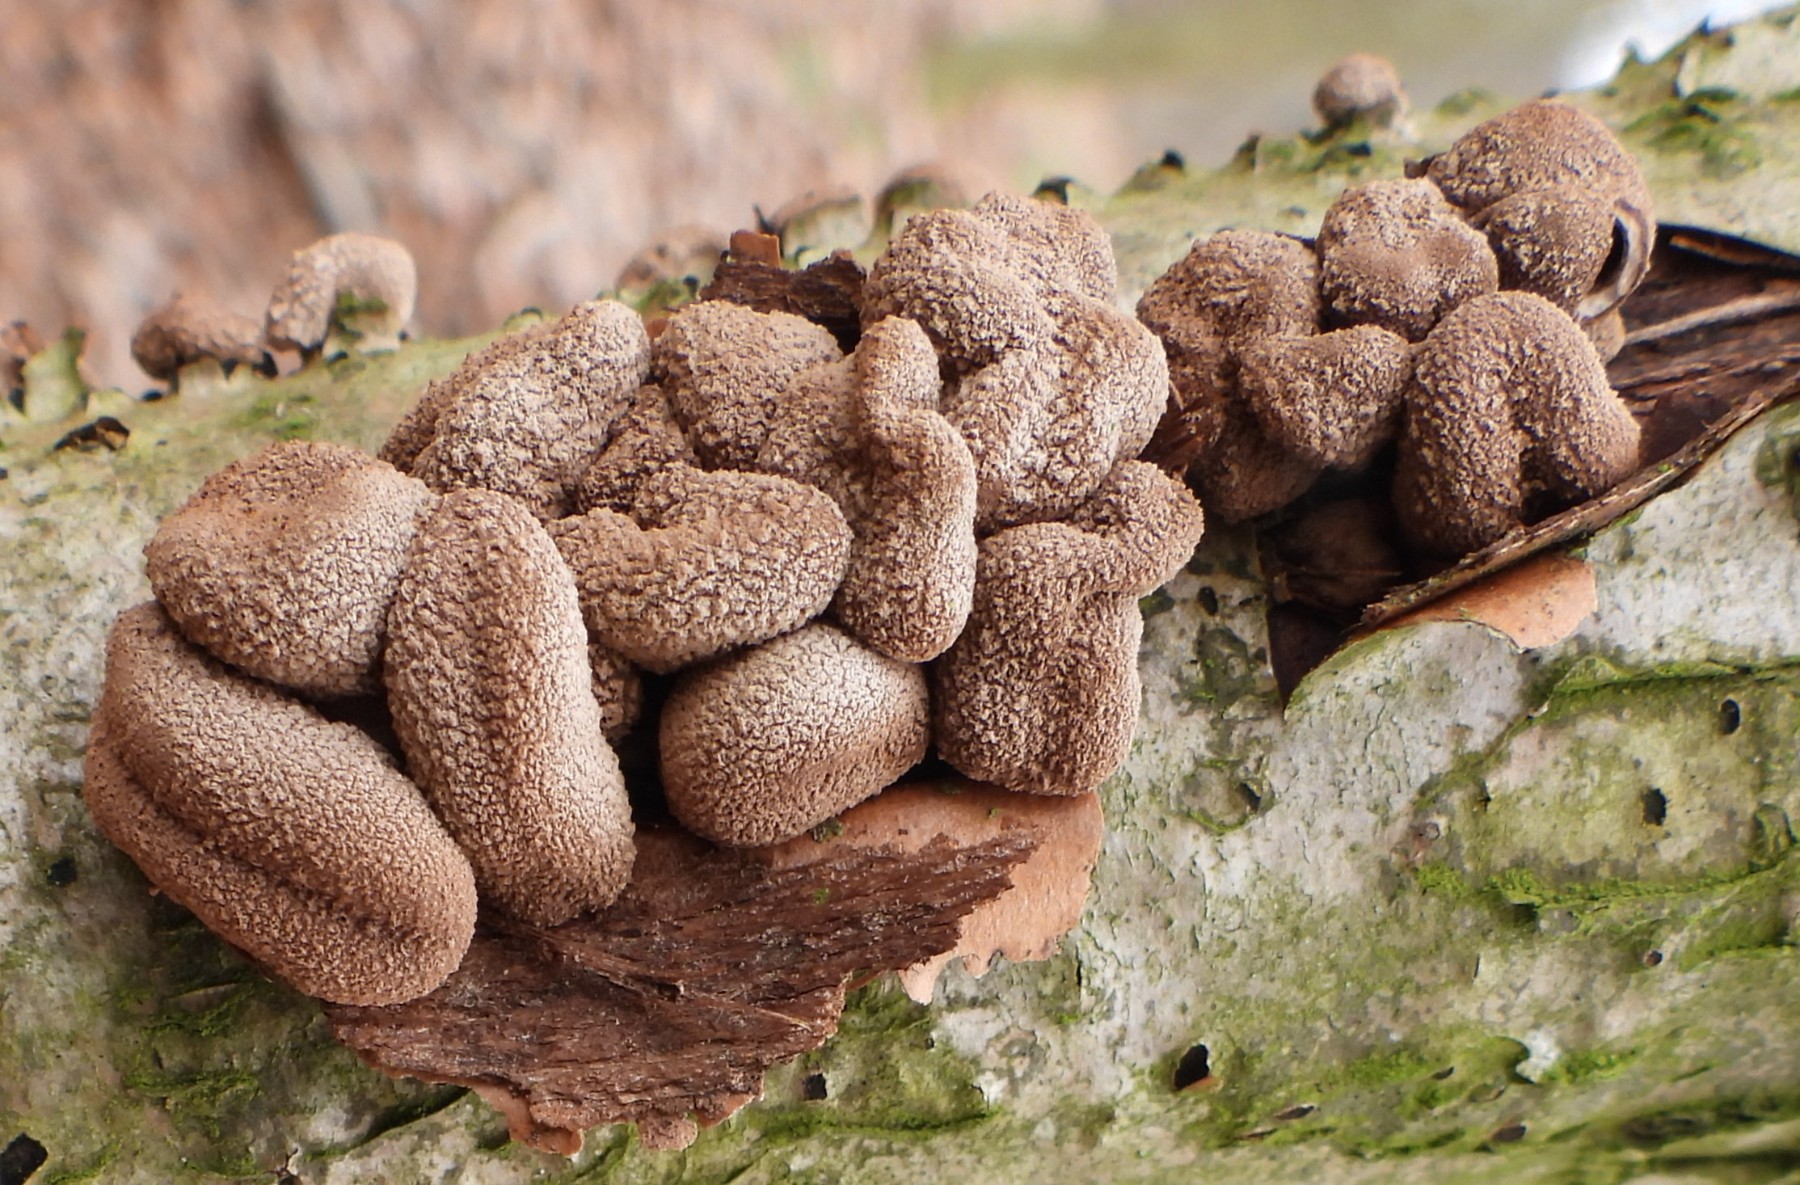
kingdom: Fungi
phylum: Ascomycota
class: Leotiomycetes
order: Helotiales
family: Cenangiaceae
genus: Encoelia
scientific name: Encoelia furfuracea
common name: hassel-læderskive
